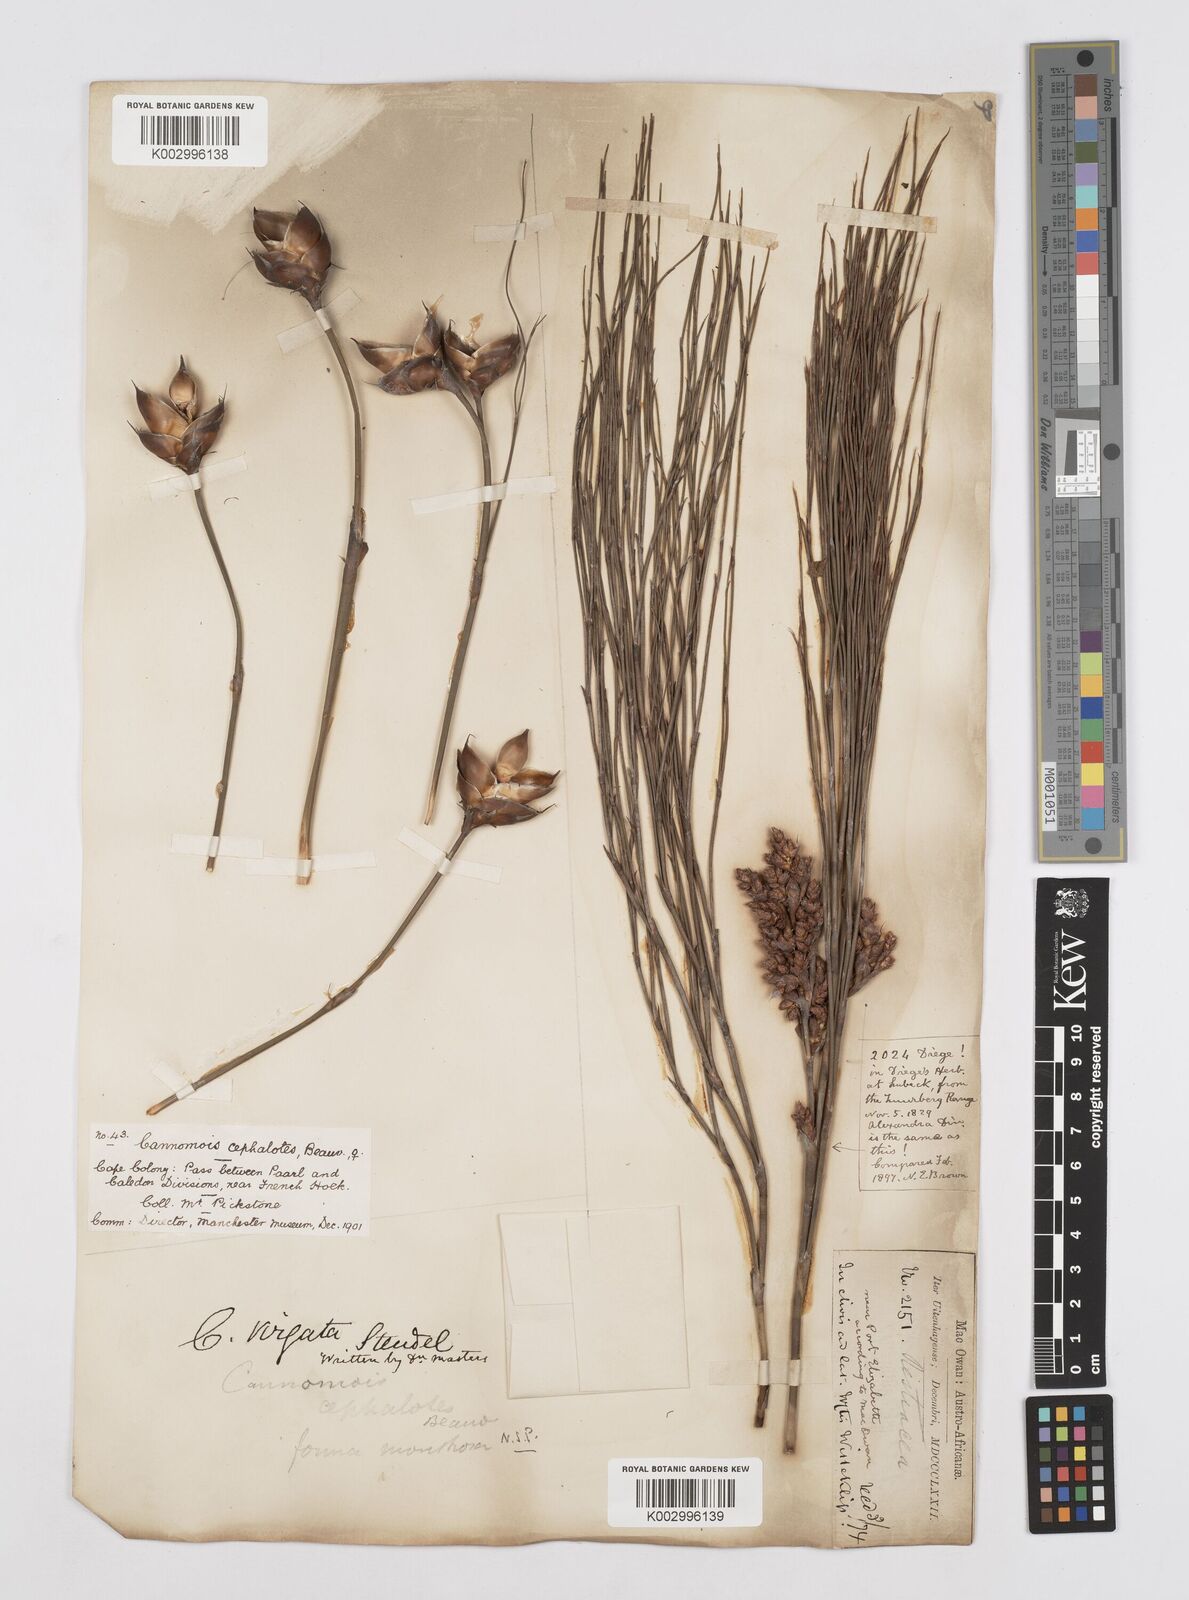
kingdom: Plantae
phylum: Tracheophyta
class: Liliopsida
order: Poales
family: Restionaceae
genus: Cannomois
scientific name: Cannomois virgata
